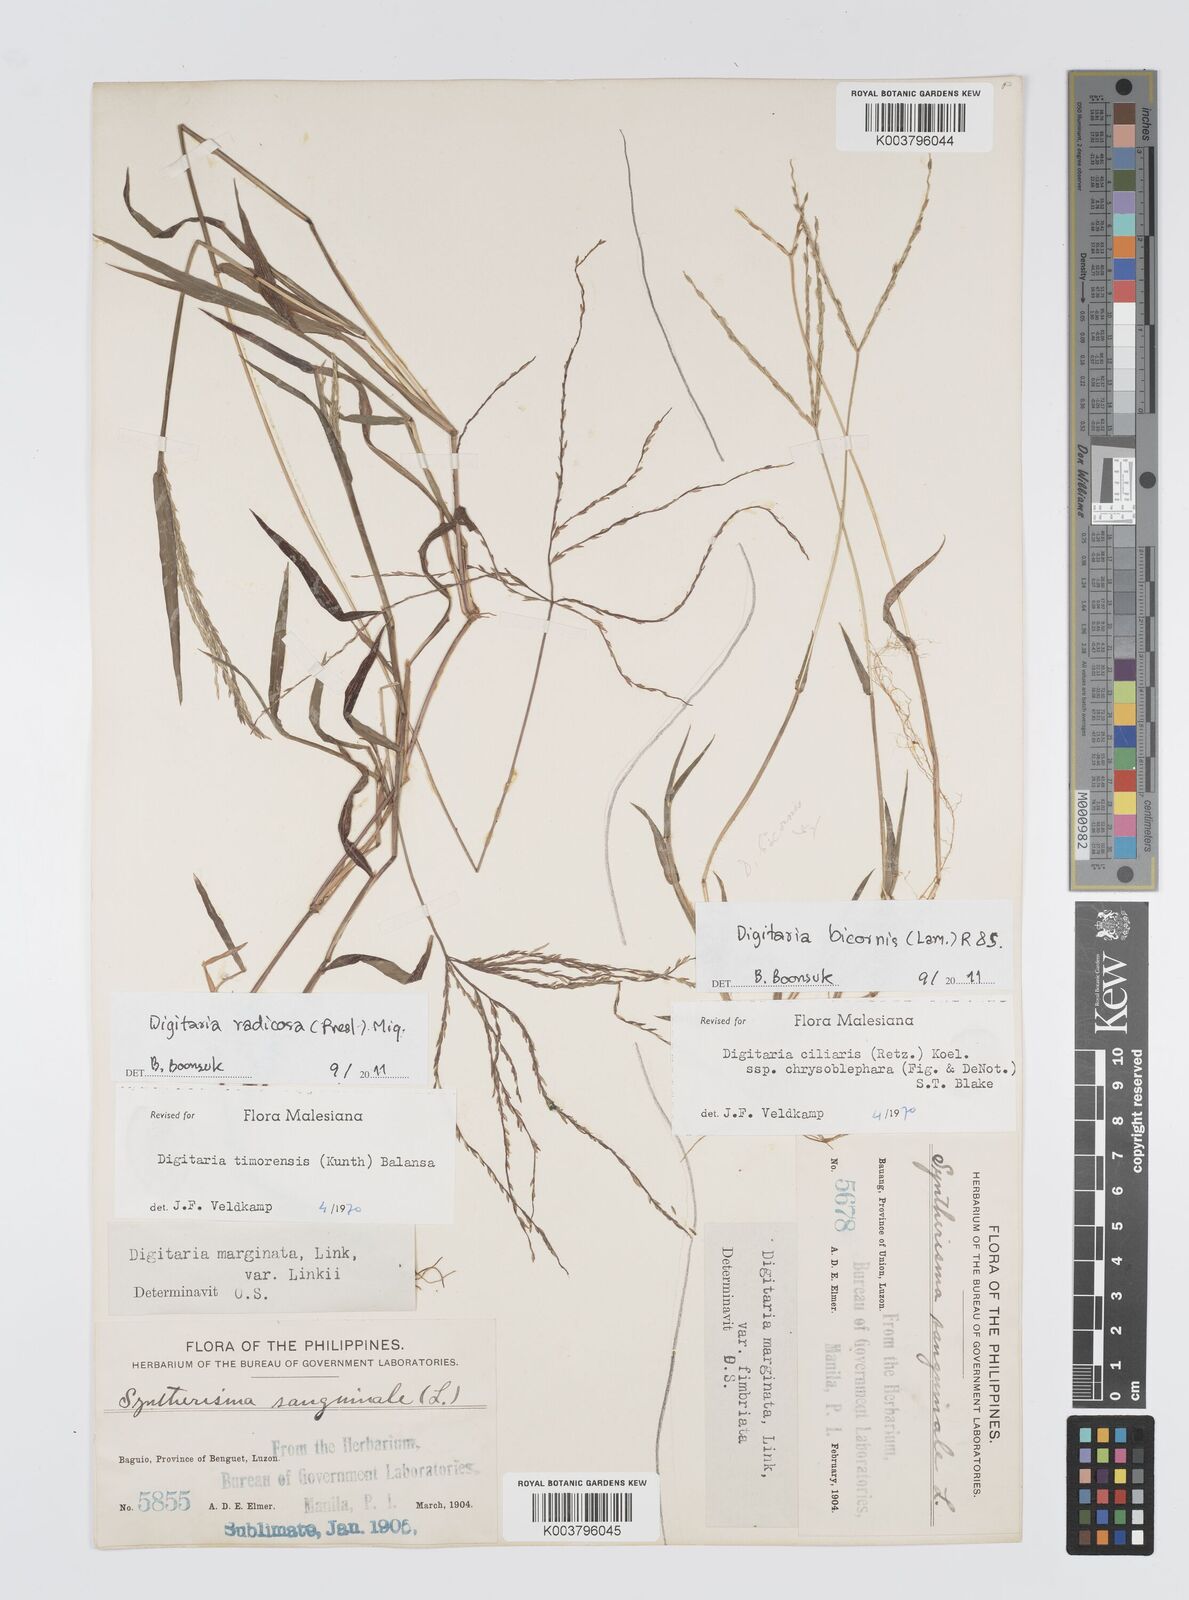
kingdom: Plantae
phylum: Tracheophyta
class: Liliopsida
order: Poales
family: Poaceae
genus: Digitaria
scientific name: Digitaria radicosa
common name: Trailing crabgrass
